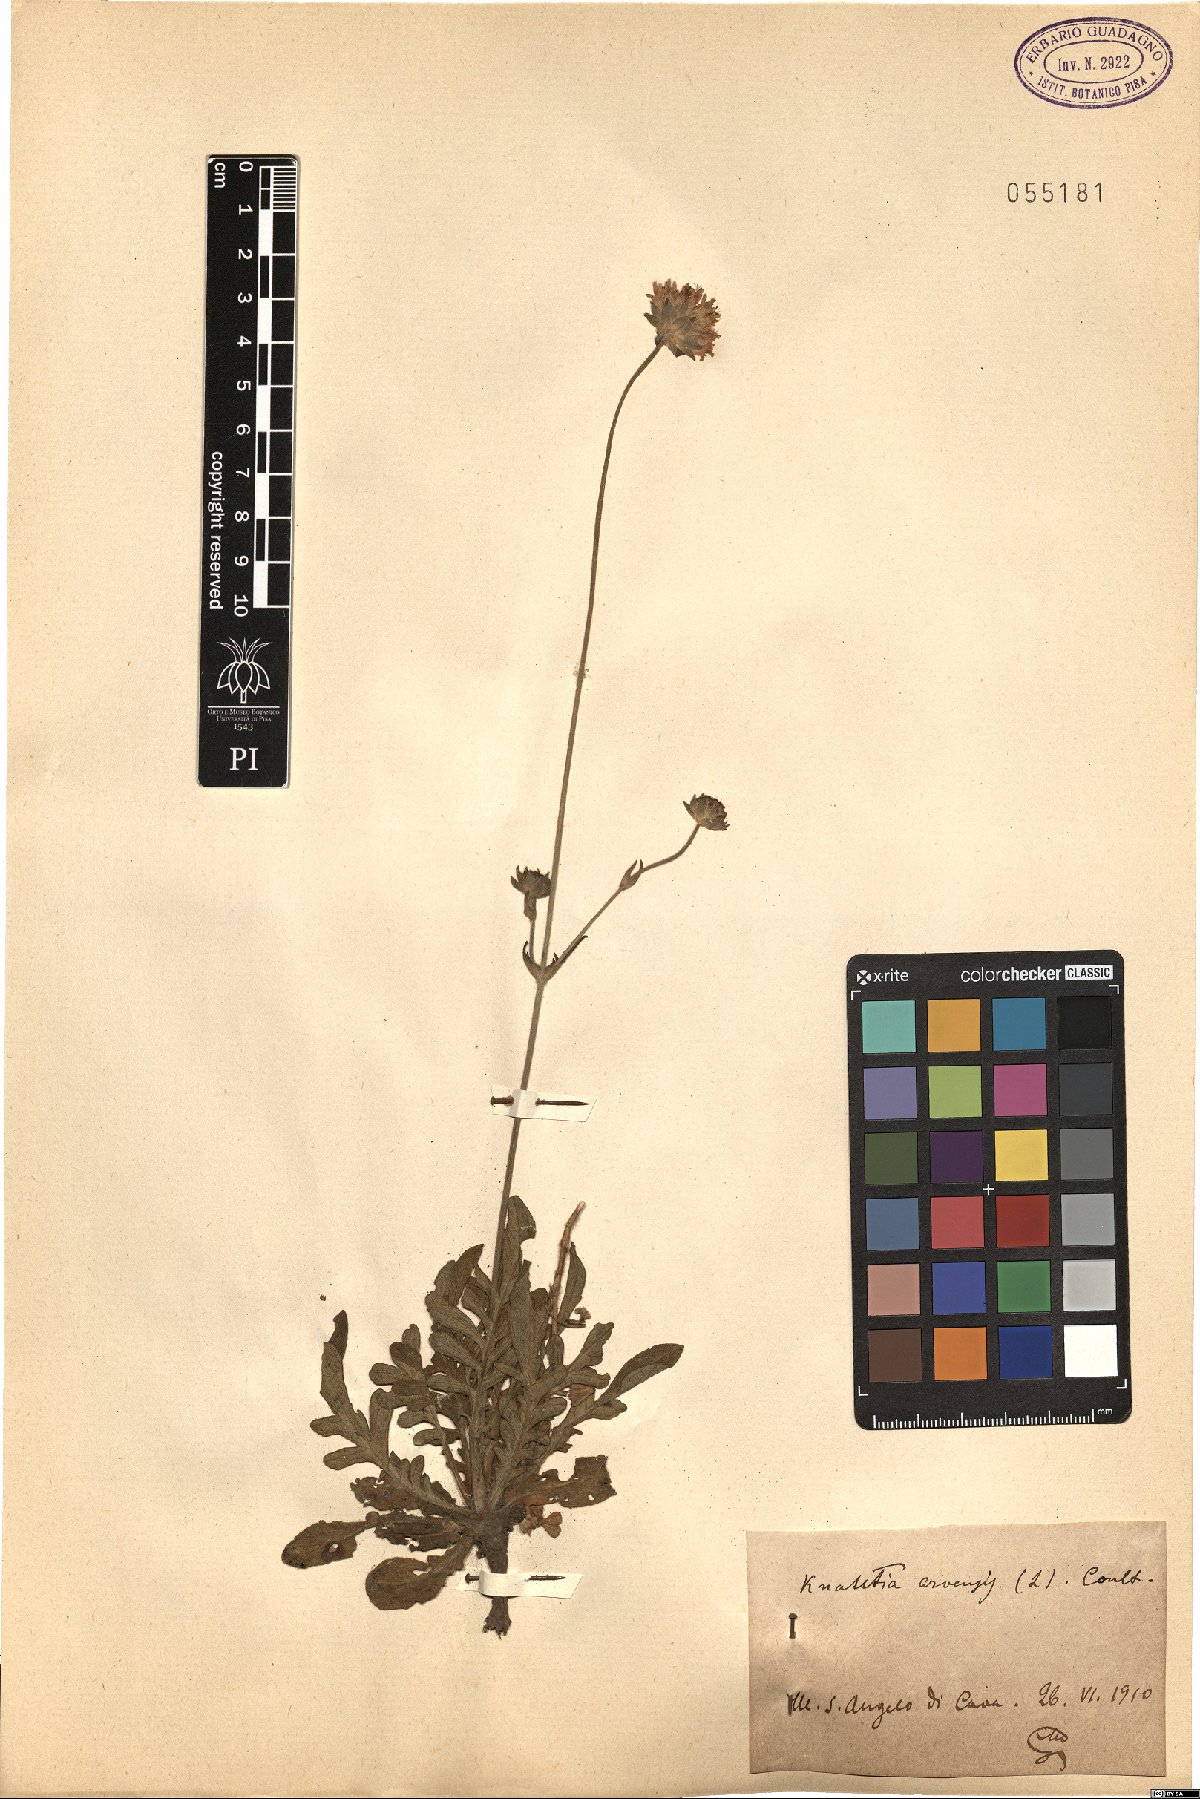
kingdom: Plantae
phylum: Tracheophyta
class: Magnoliopsida
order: Dipsacales
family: Caprifoliaceae
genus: Knautia
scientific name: Knautia arvensis
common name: Field scabiosa
